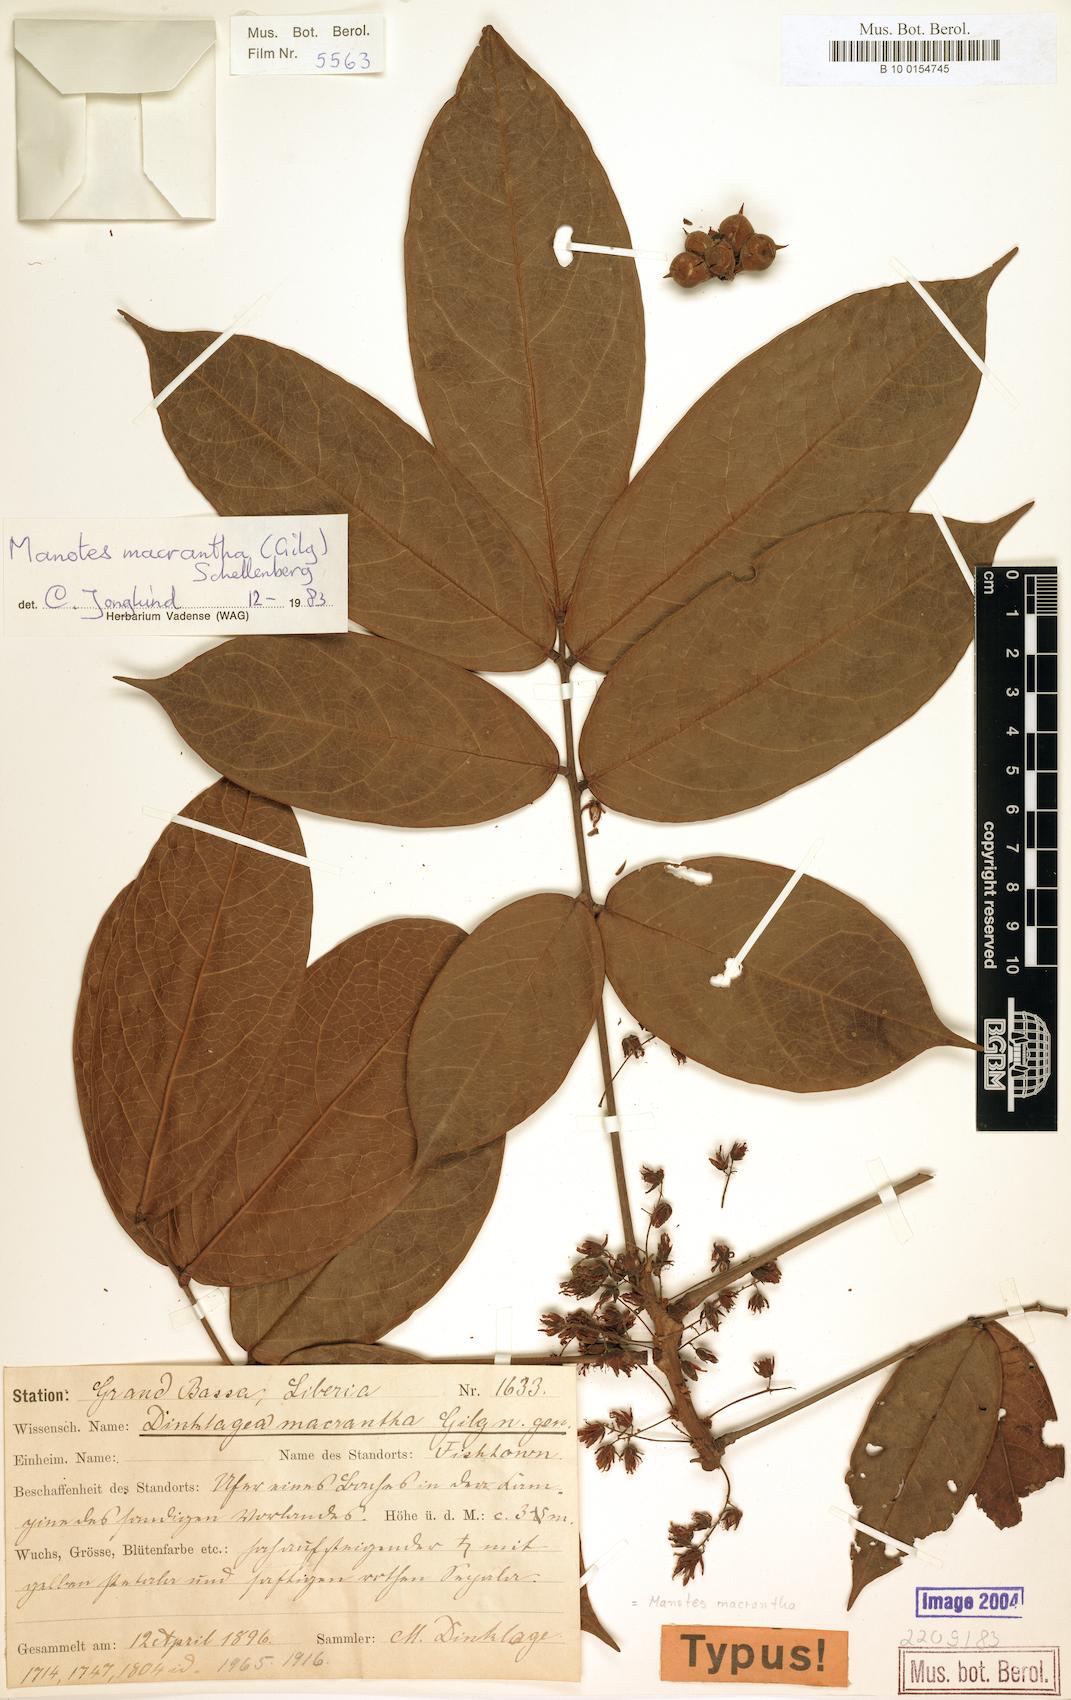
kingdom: Plantae
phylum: Tracheophyta
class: Magnoliopsida
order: Oxalidales
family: Connaraceae
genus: Manotes
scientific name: Manotes macrantha
